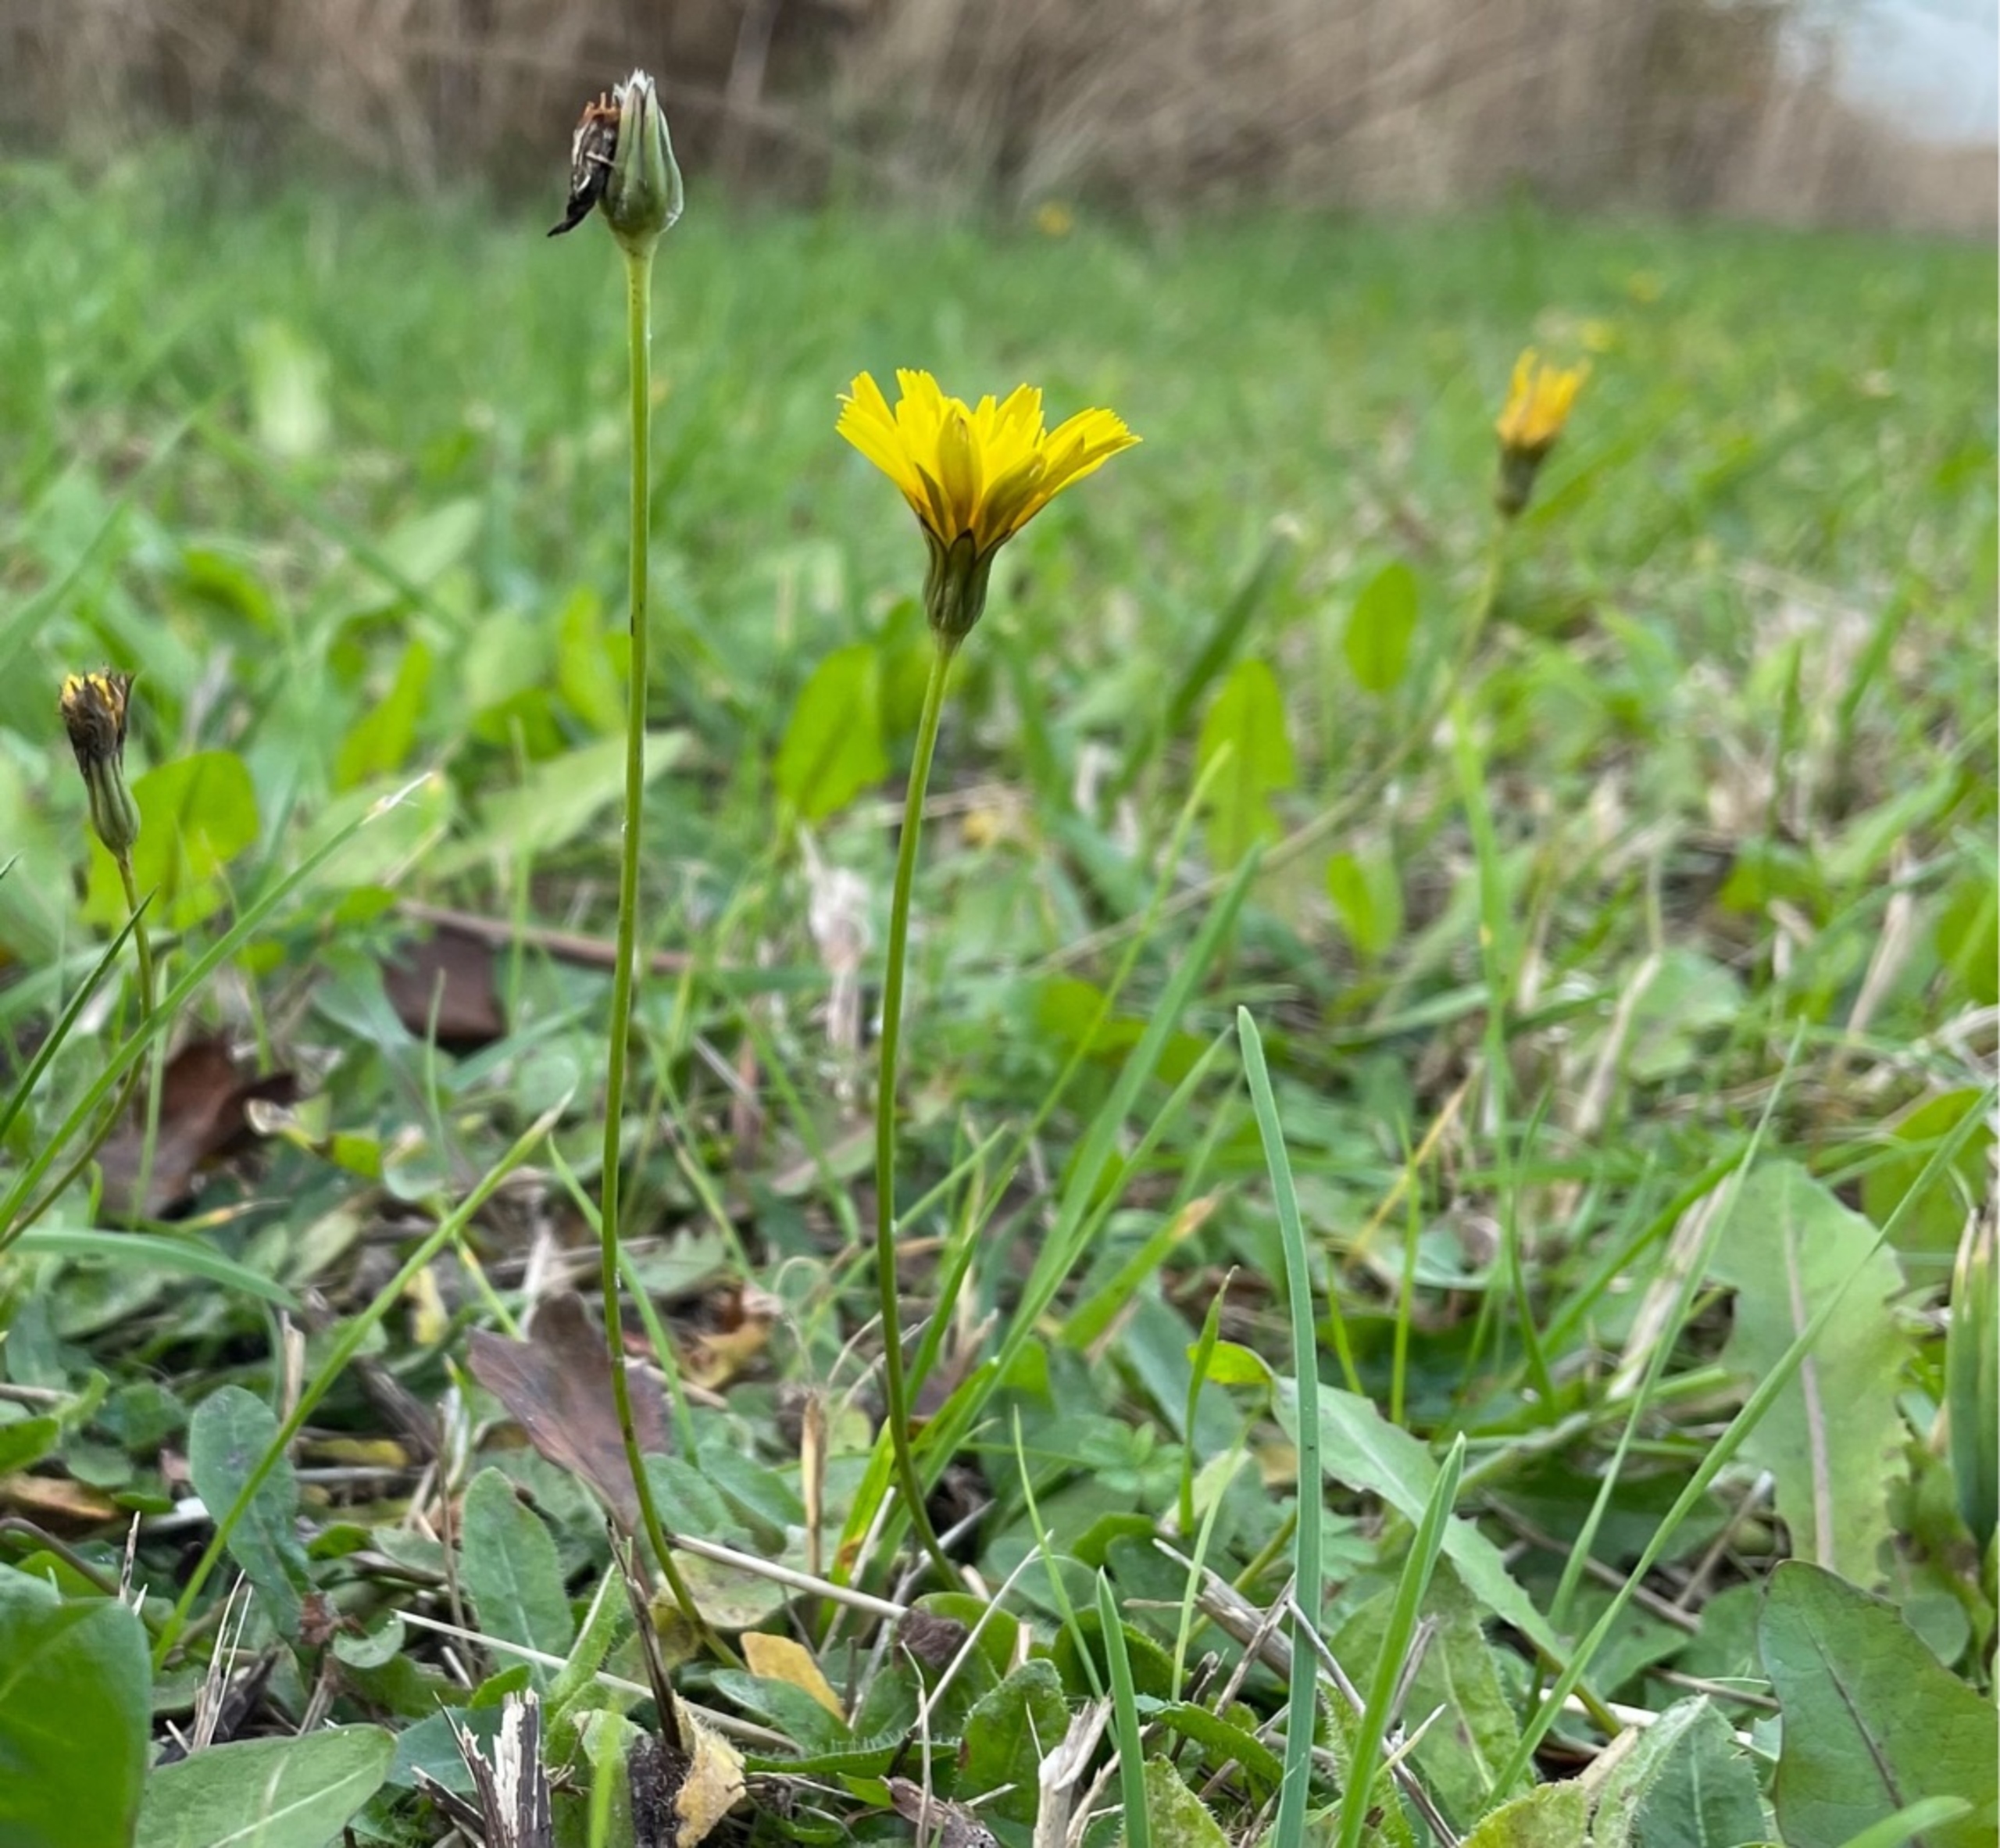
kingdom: Plantae
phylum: Tracheophyta
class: Magnoliopsida
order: Asterales
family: Asteraceae
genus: Thrincia
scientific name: Thrincia saxatilis
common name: Hundesalat
